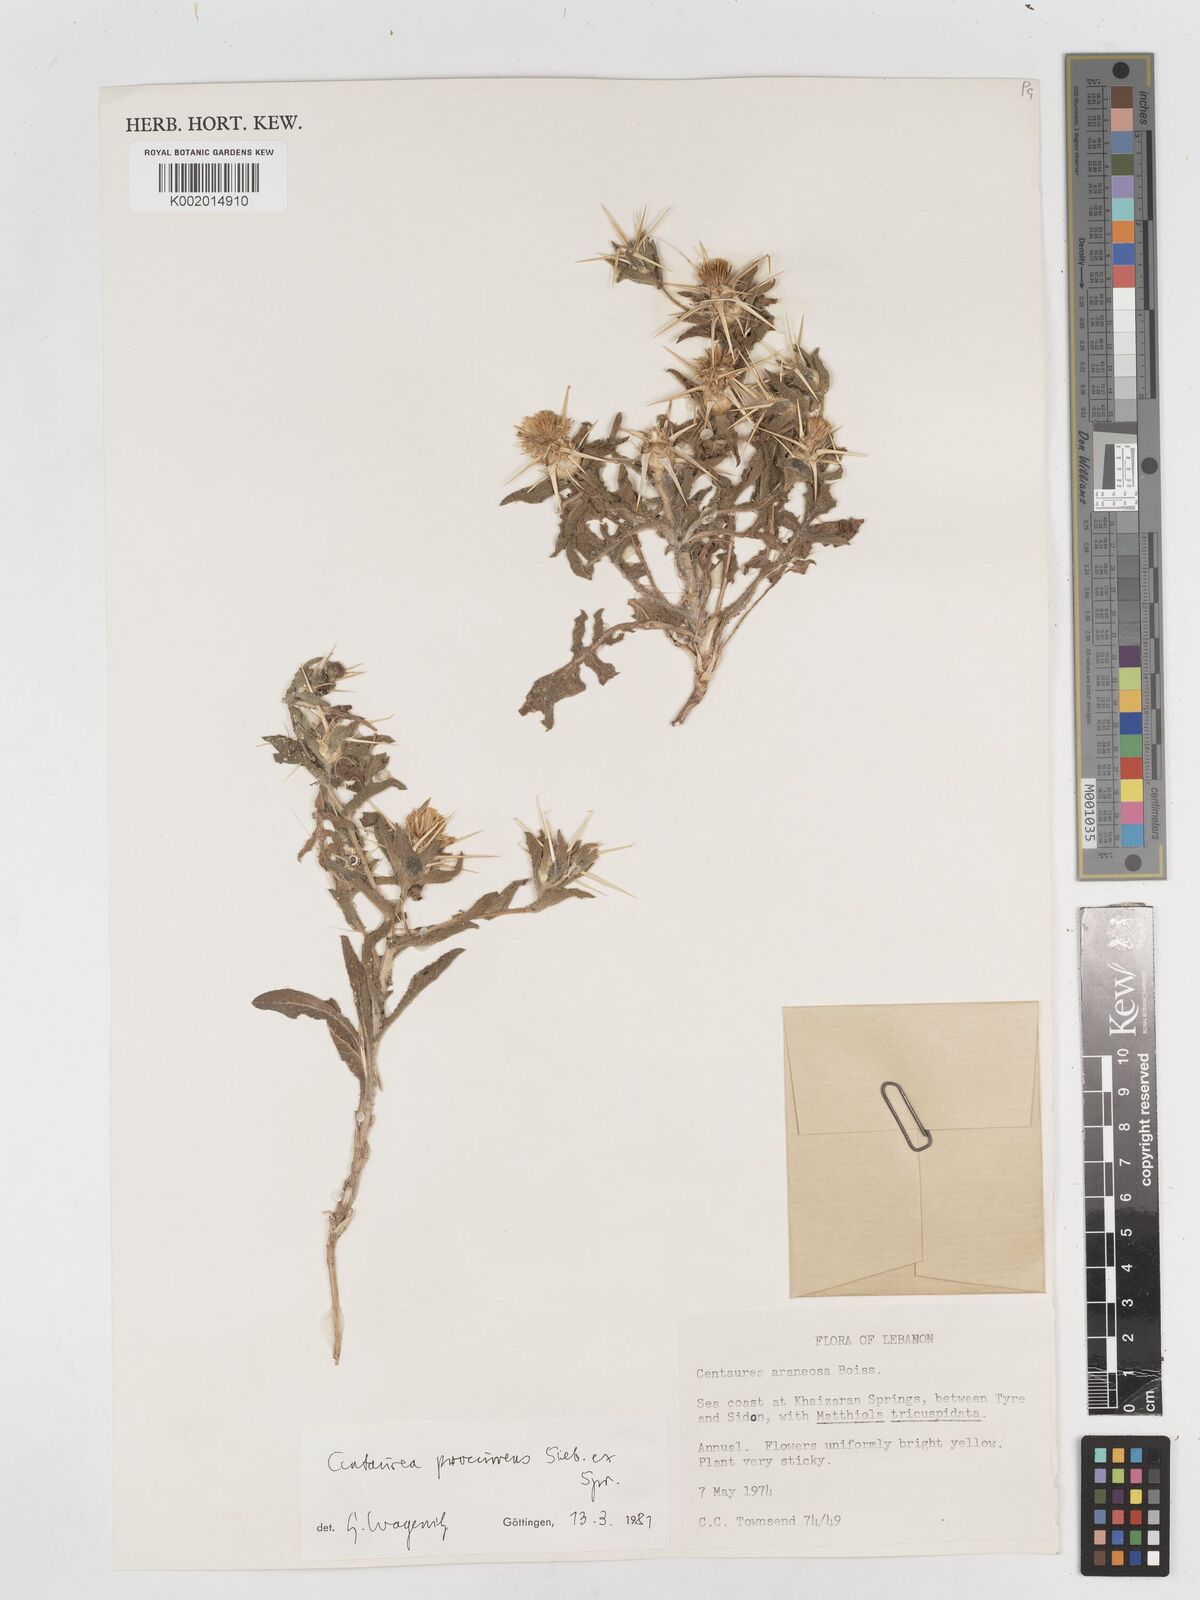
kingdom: Plantae
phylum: Tracheophyta
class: Magnoliopsida
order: Asterales
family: Asteraceae
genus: Centaurea
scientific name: Centaurea procurrens
